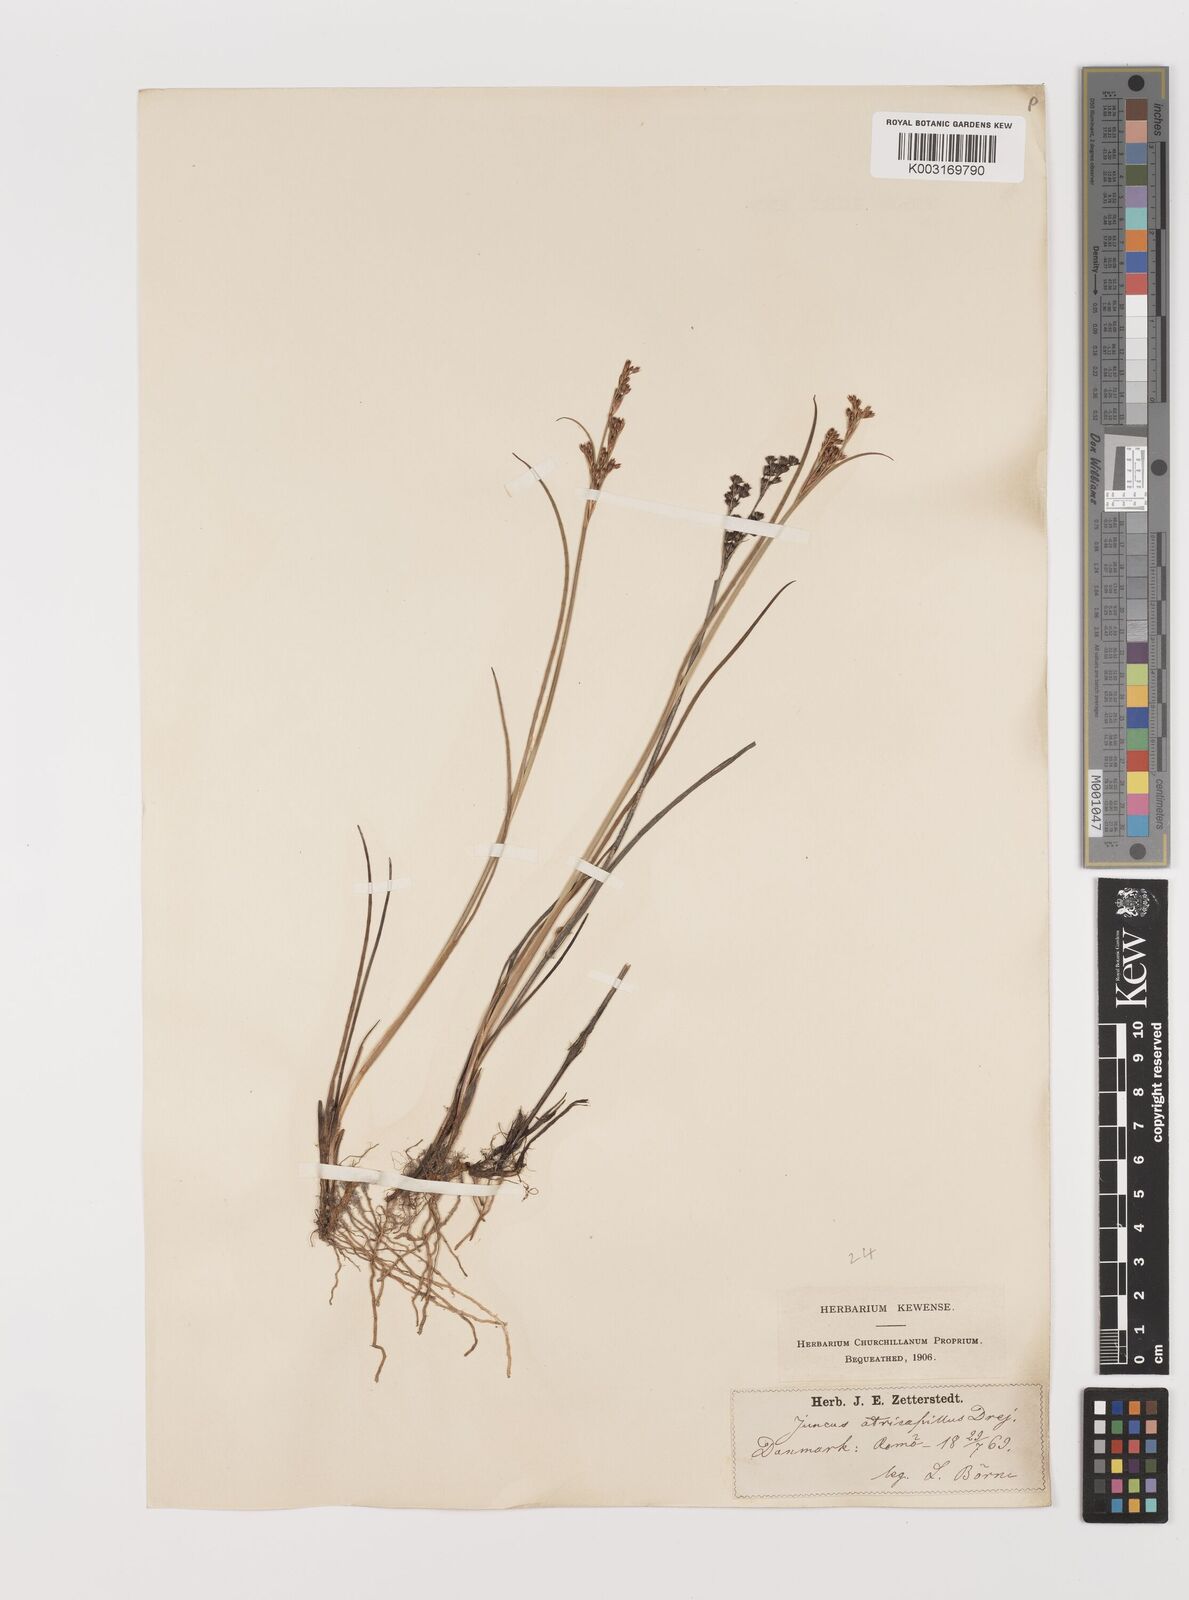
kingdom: Plantae
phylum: Tracheophyta
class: Liliopsida
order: Poales
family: Juncaceae
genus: Juncus
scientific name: Juncus anceps
